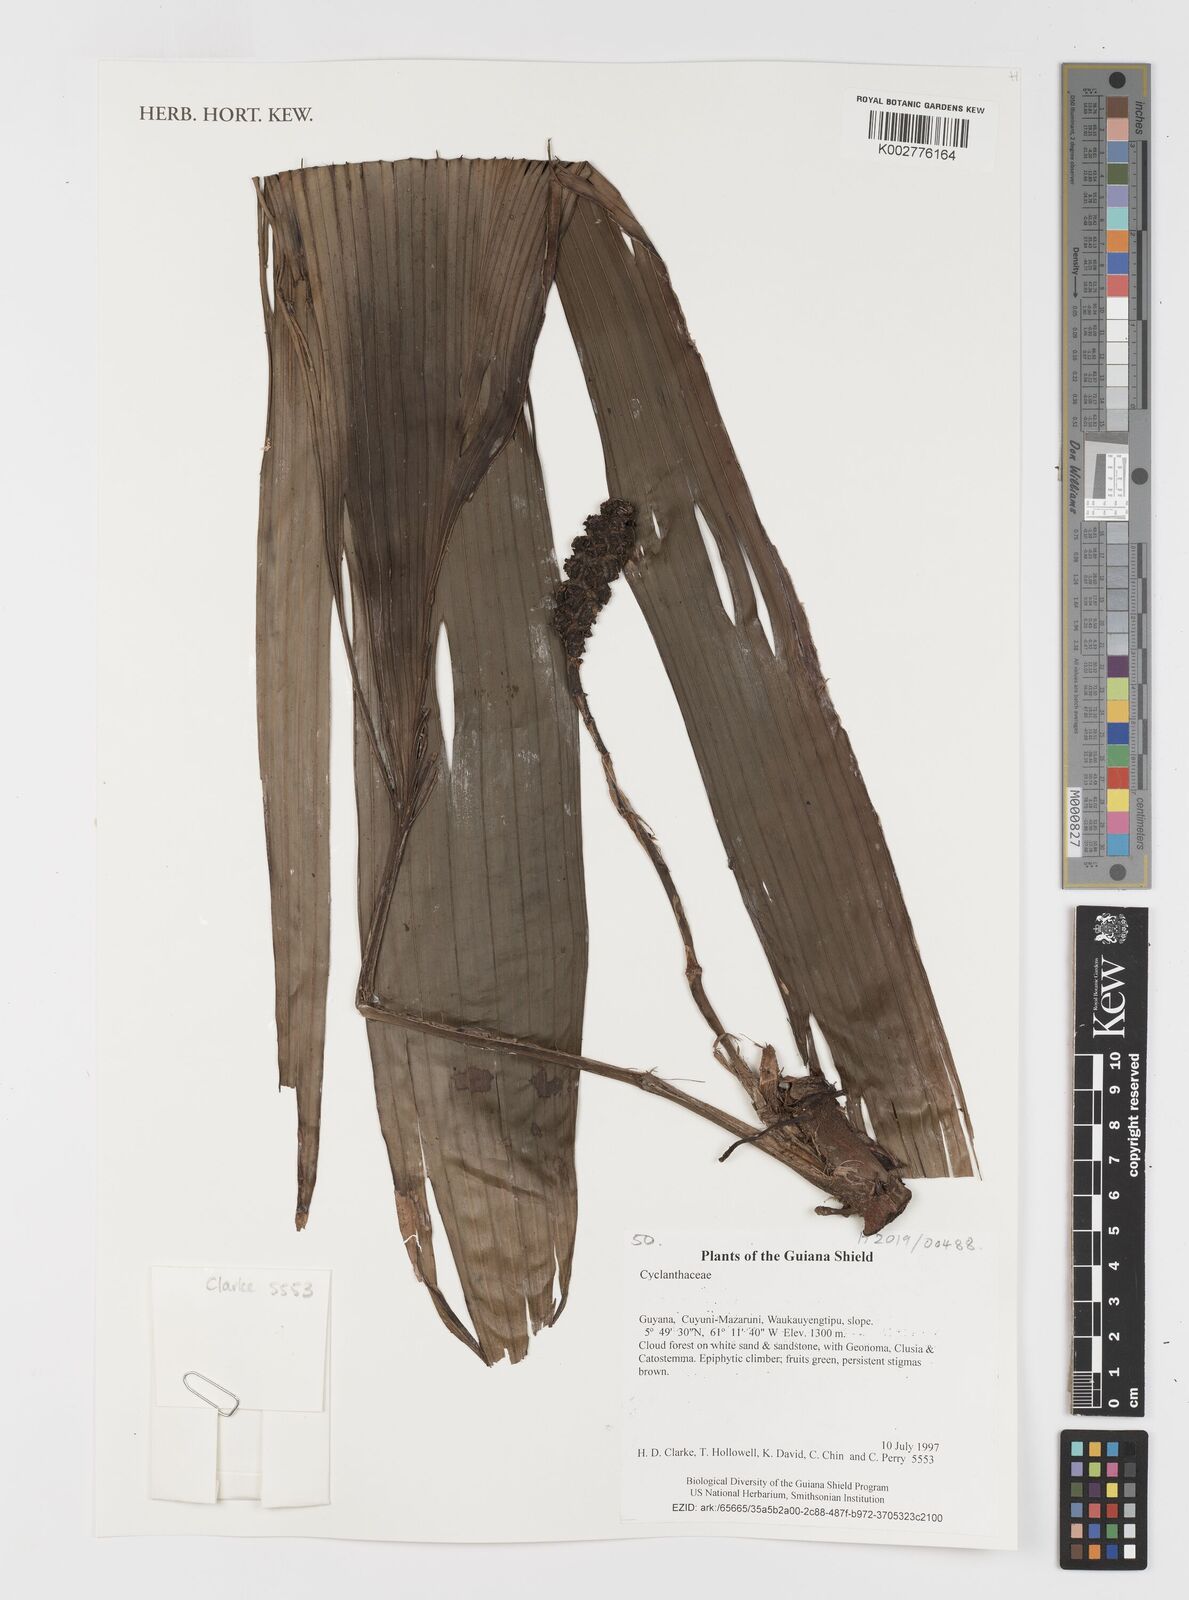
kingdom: Plantae
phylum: Tracheophyta
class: Liliopsida
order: Pandanales
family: Cyclanthaceae
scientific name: Cyclanthaceae
